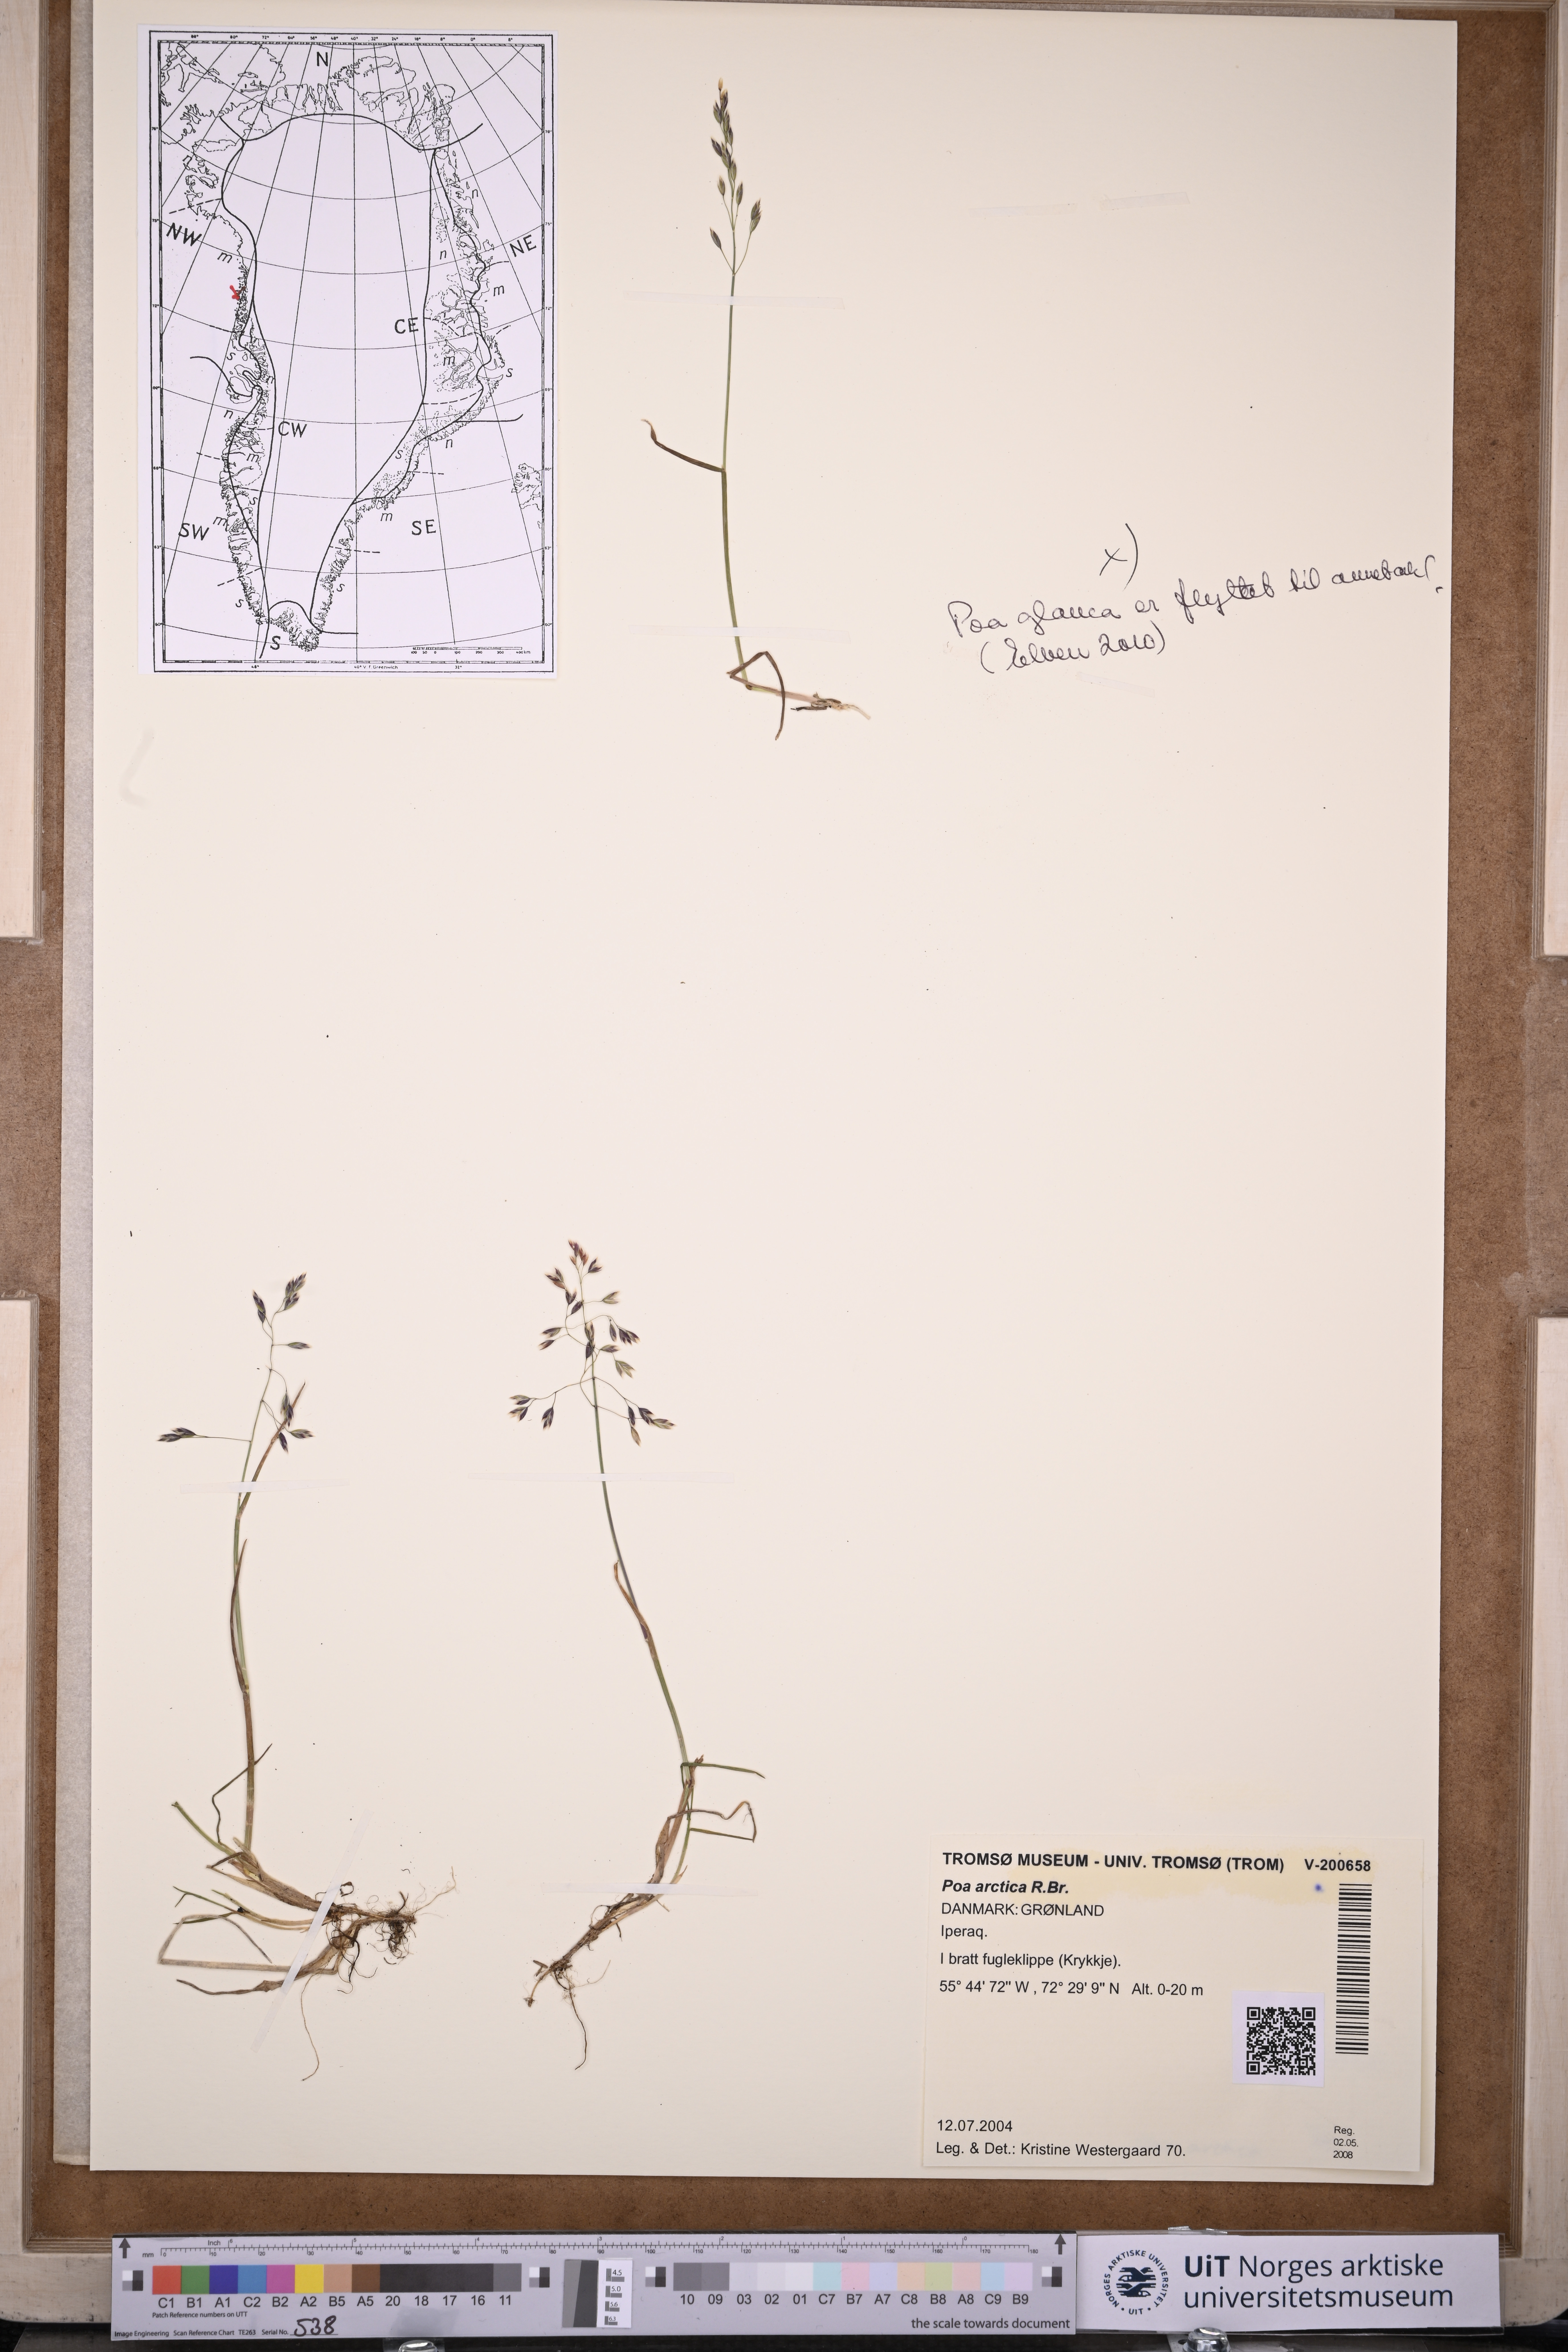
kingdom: Plantae
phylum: Tracheophyta
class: Liliopsida
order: Poales
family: Poaceae
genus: Poa
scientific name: Poa arctica
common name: Arctic bluegrass
